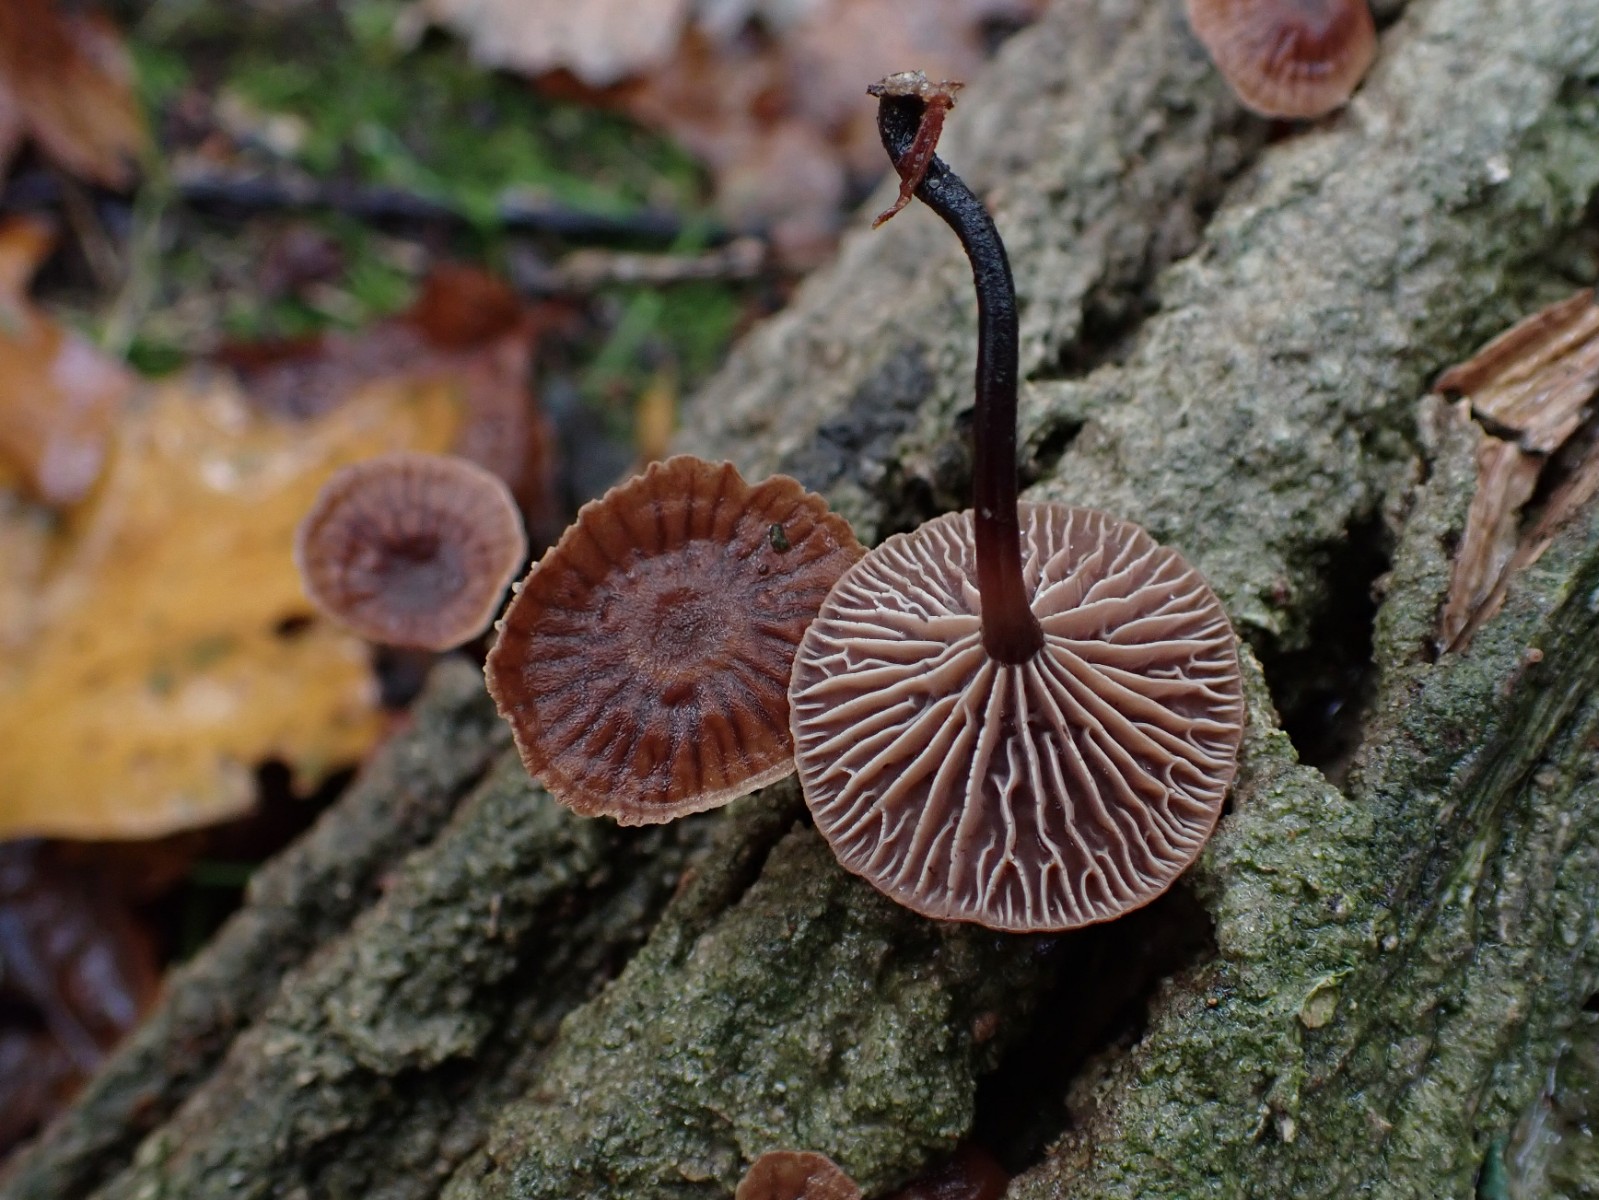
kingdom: Fungi
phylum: Basidiomycota
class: Agaricomycetes
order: Agaricales
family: Omphalotaceae
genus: Gymnopus
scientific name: Gymnopus foetidus
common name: stinkende fladhat
